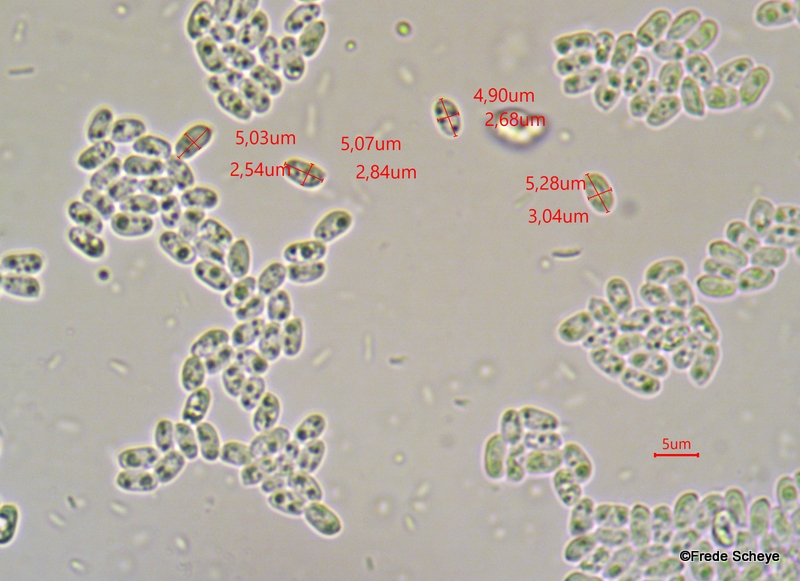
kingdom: Fungi
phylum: Basidiomycota
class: Agaricomycetes
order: Agaricales
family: Tricholomataceae
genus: Cystoderma
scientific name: Cystoderma amianthinum
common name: okkergul grynhat
